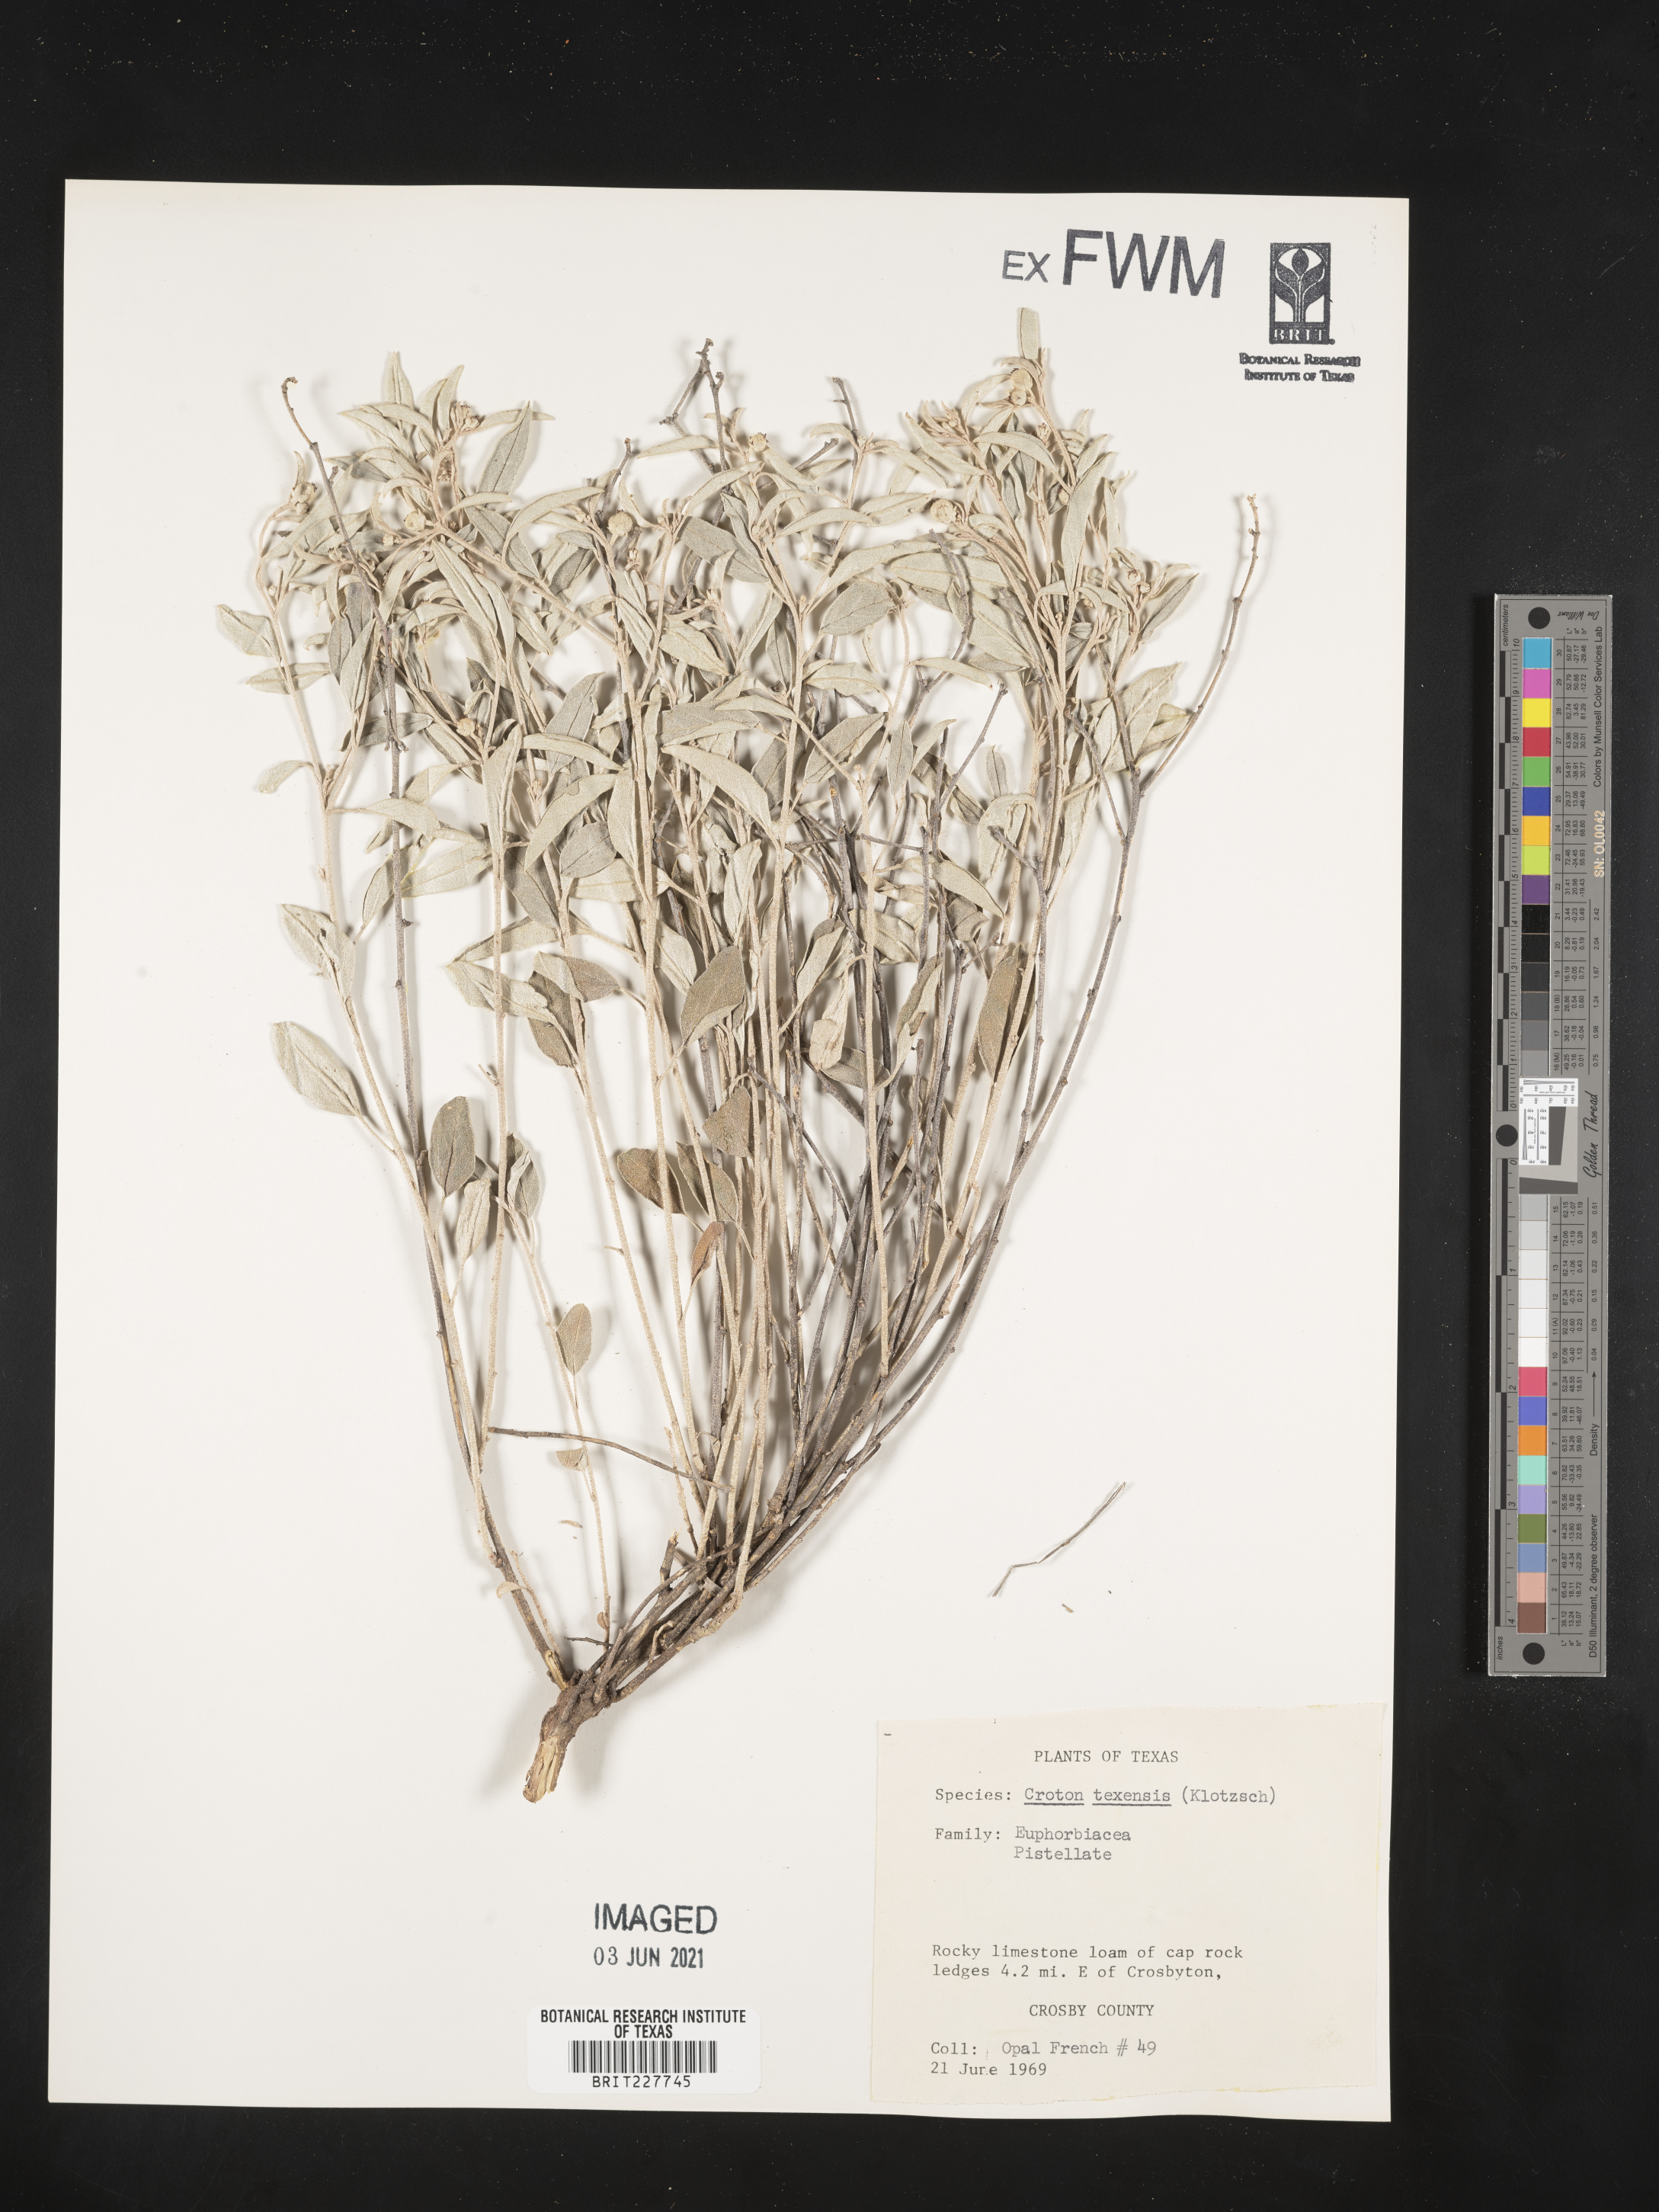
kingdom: Plantae
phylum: Tracheophyta
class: Magnoliopsida
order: Malpighiales
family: Euphorbiaceae
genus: Croton
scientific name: Croton texensis
